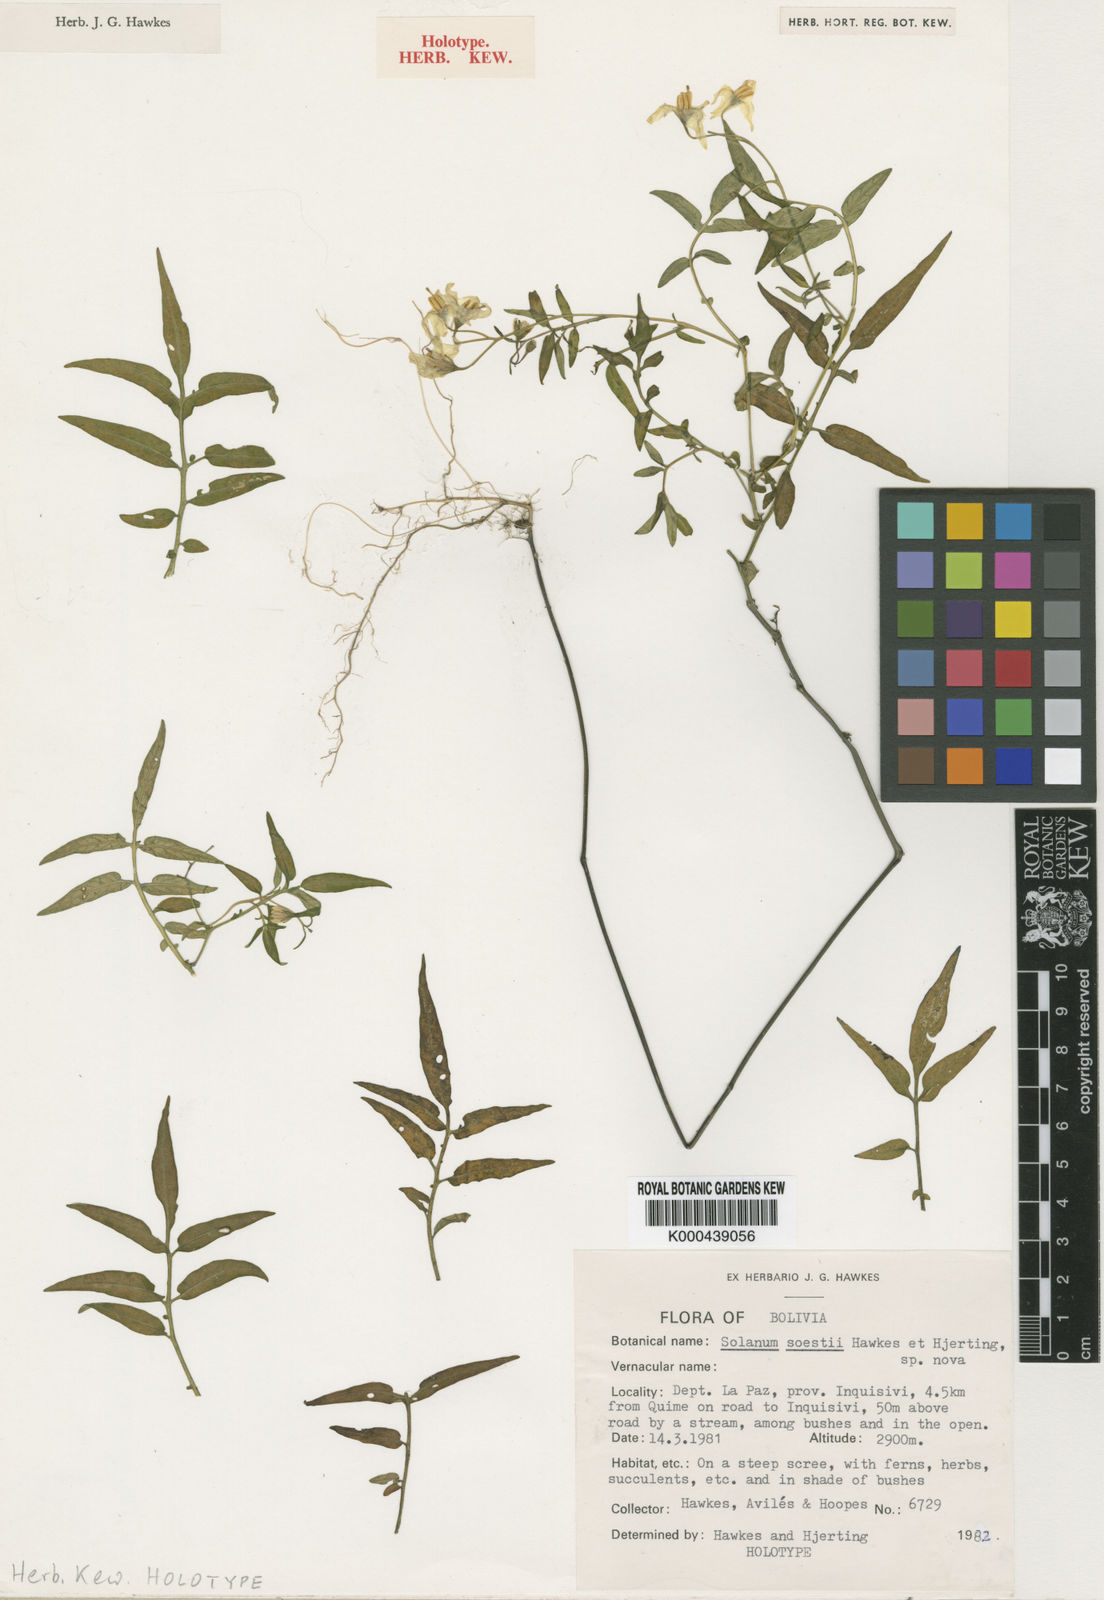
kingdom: Plantae
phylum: Tracheophyta
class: Magnoliopsida
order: Solanales
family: Solanaceae
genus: Solanum
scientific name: Solanum stipuloideum
